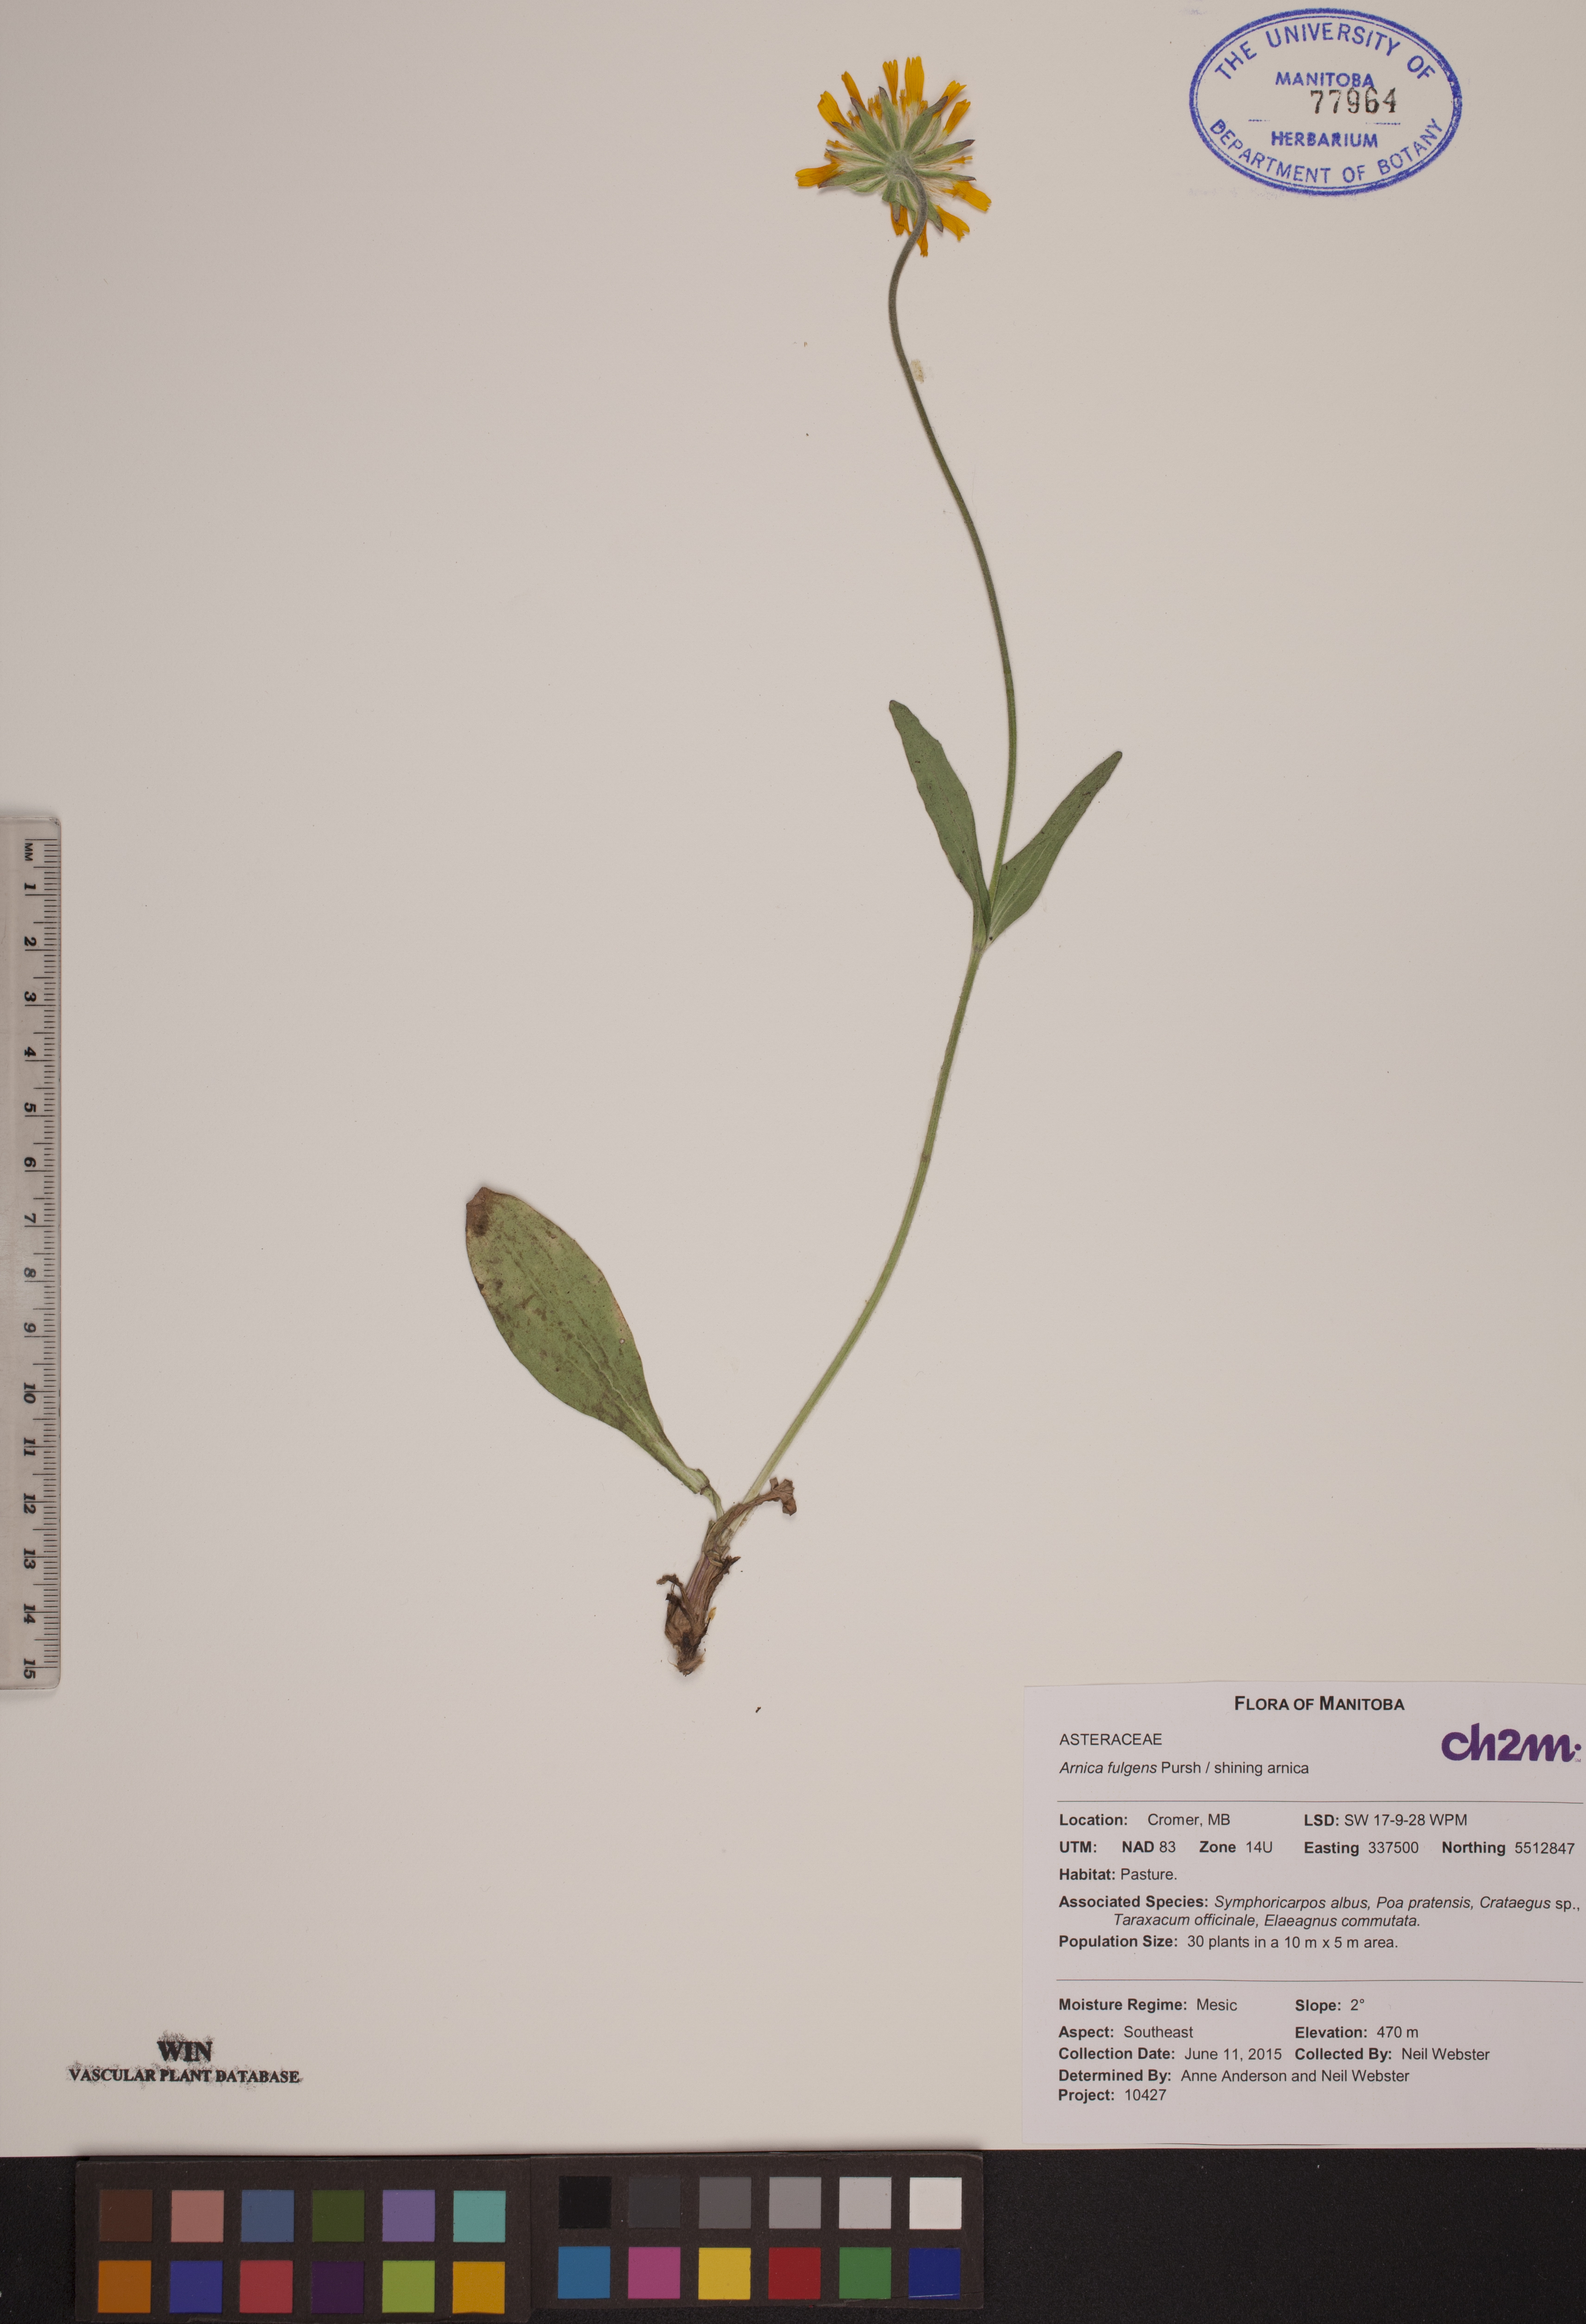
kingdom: Plantae
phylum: Tracheophyta
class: Magnoliopsida
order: Asterales
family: Asteraceae
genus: Arnica
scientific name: Arnica fulgens
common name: Foothill arnica
